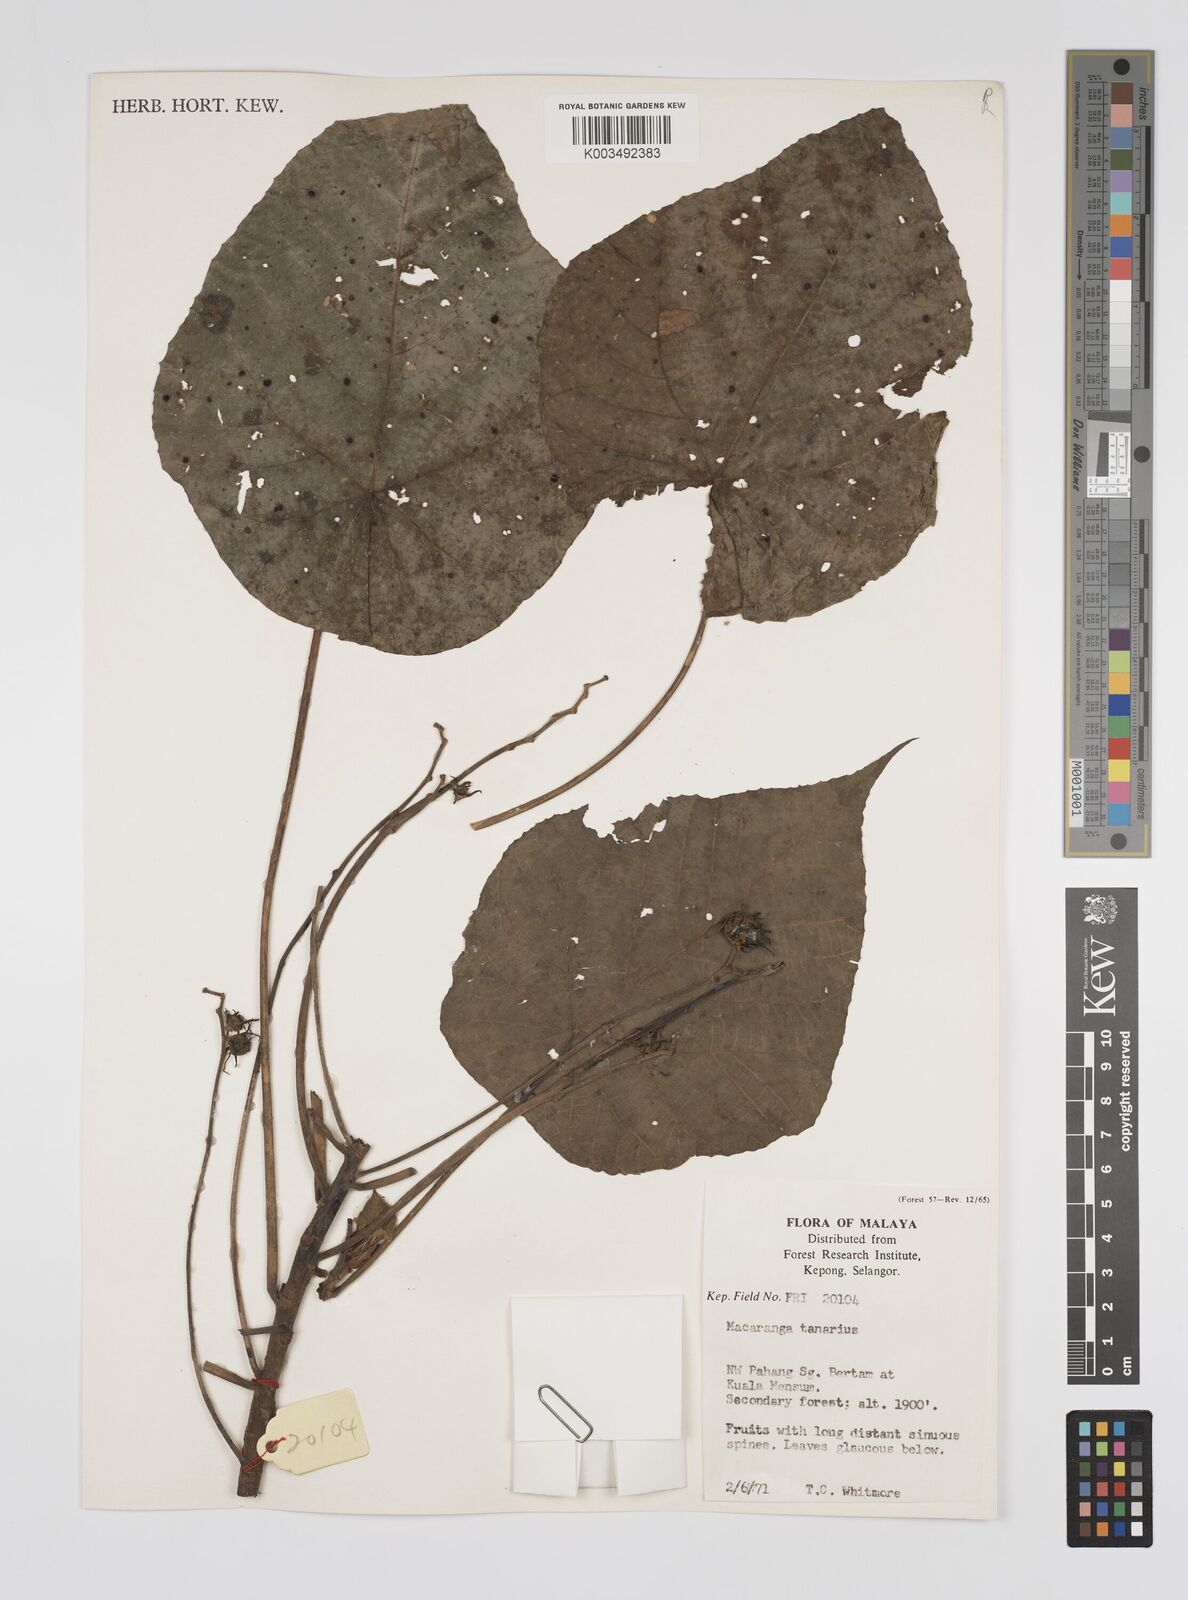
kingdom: Plantae
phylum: Tracheophyta
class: Magnoliopsida
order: Malpighiales
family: Euphorbiaceae
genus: Macaranga
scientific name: Macaranga tanarius
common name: Parasol leaf tree
